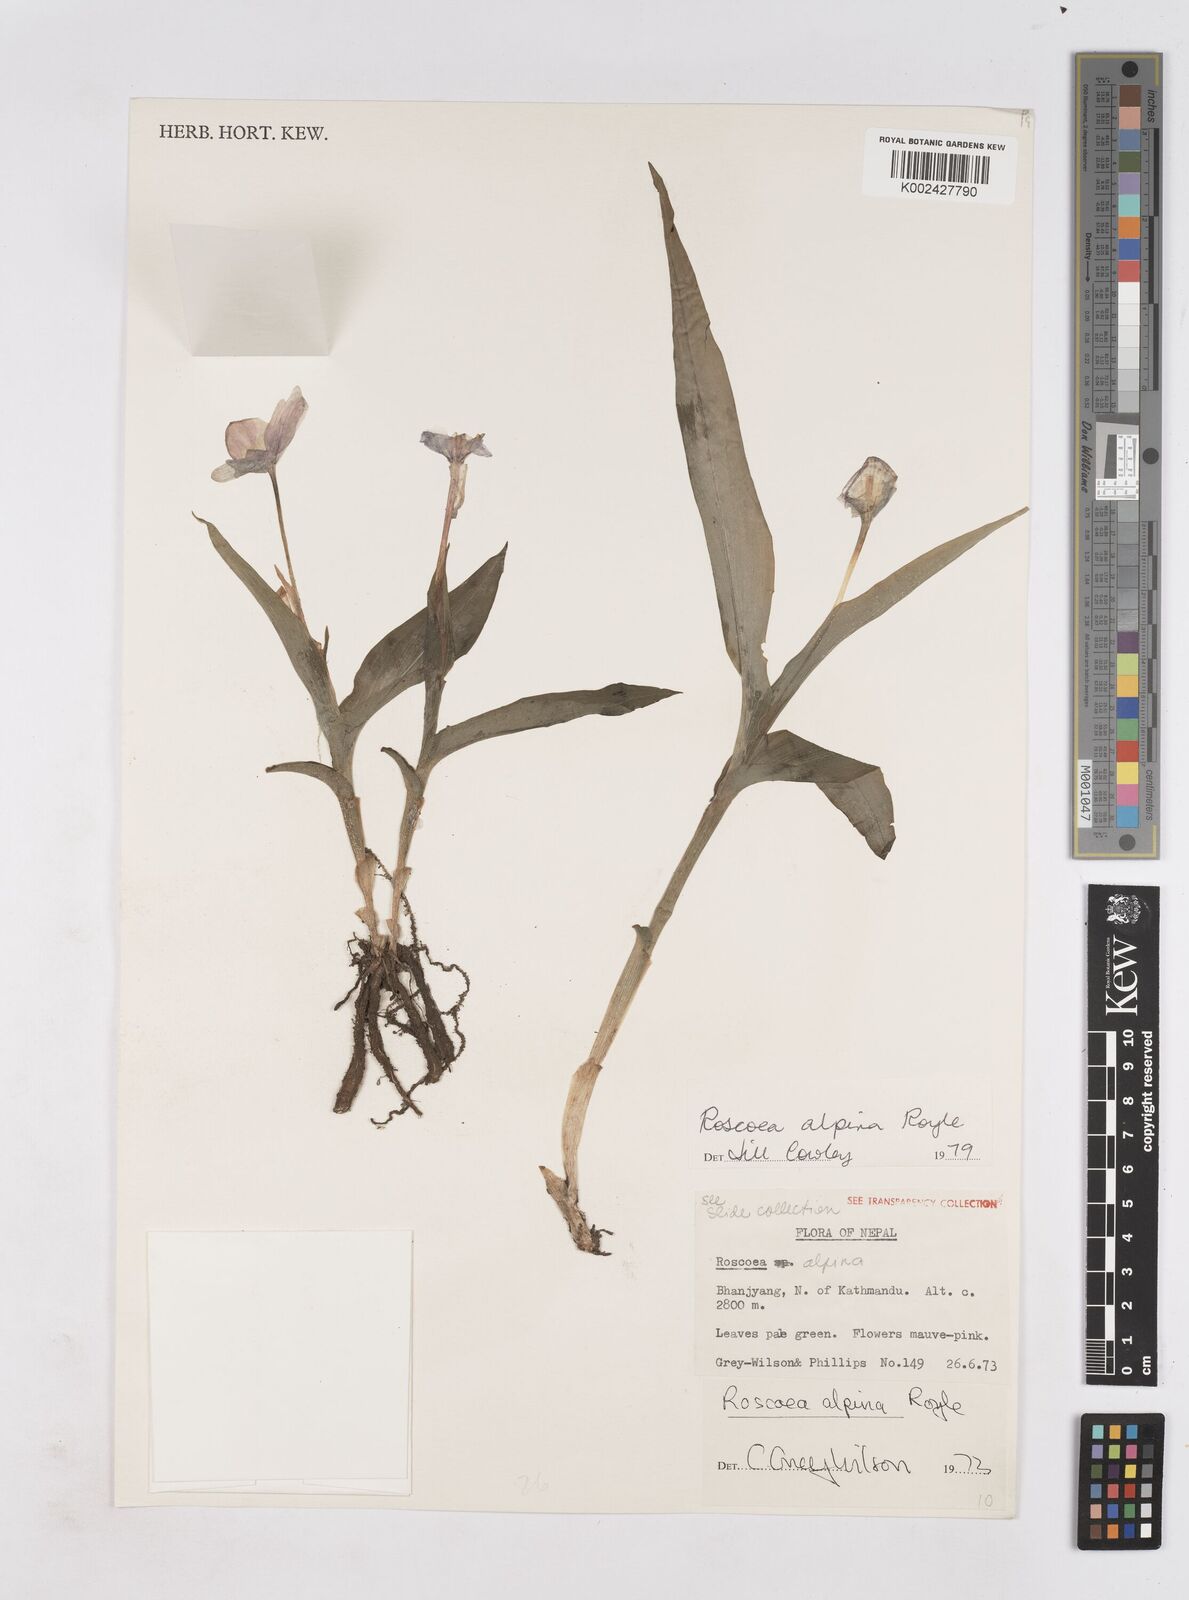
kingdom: Plantae
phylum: Tracheophyta
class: Liliopsida
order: Zingiberales
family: Zingiberaceae
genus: Roscoea
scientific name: Roscoea alpina
